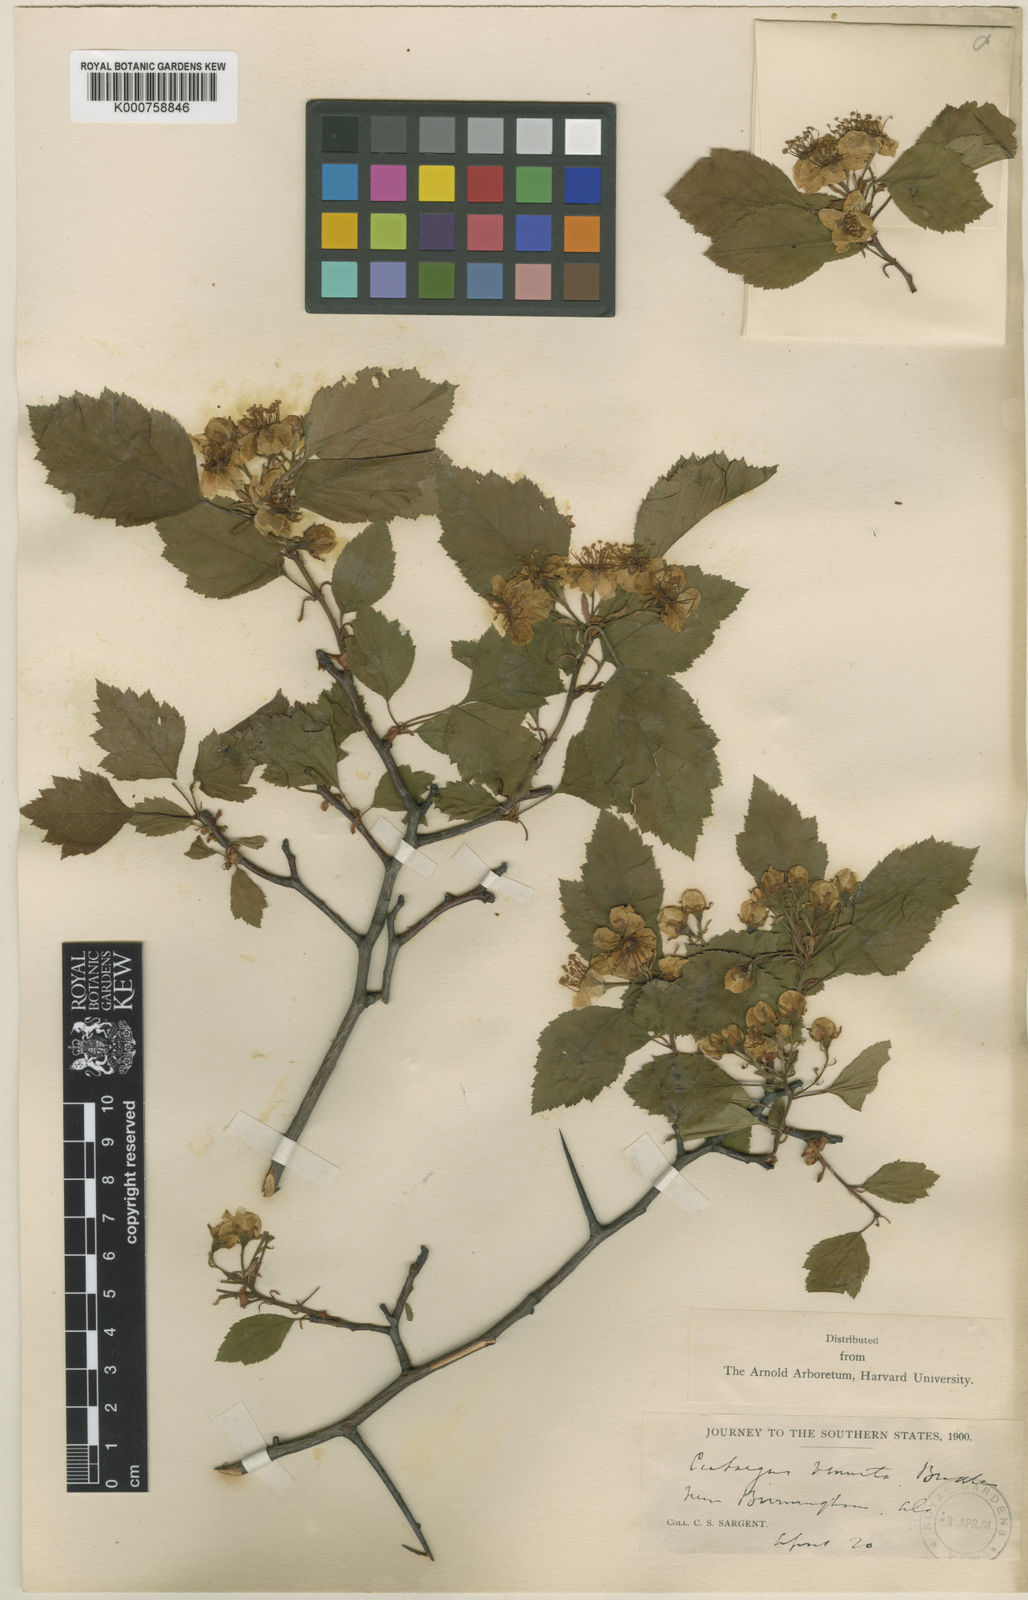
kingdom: Plantae
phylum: Tracheophyta
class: Magnoliopsida
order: Rosales
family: Rosaceae
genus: Crataegus
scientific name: Crataegus venusta
